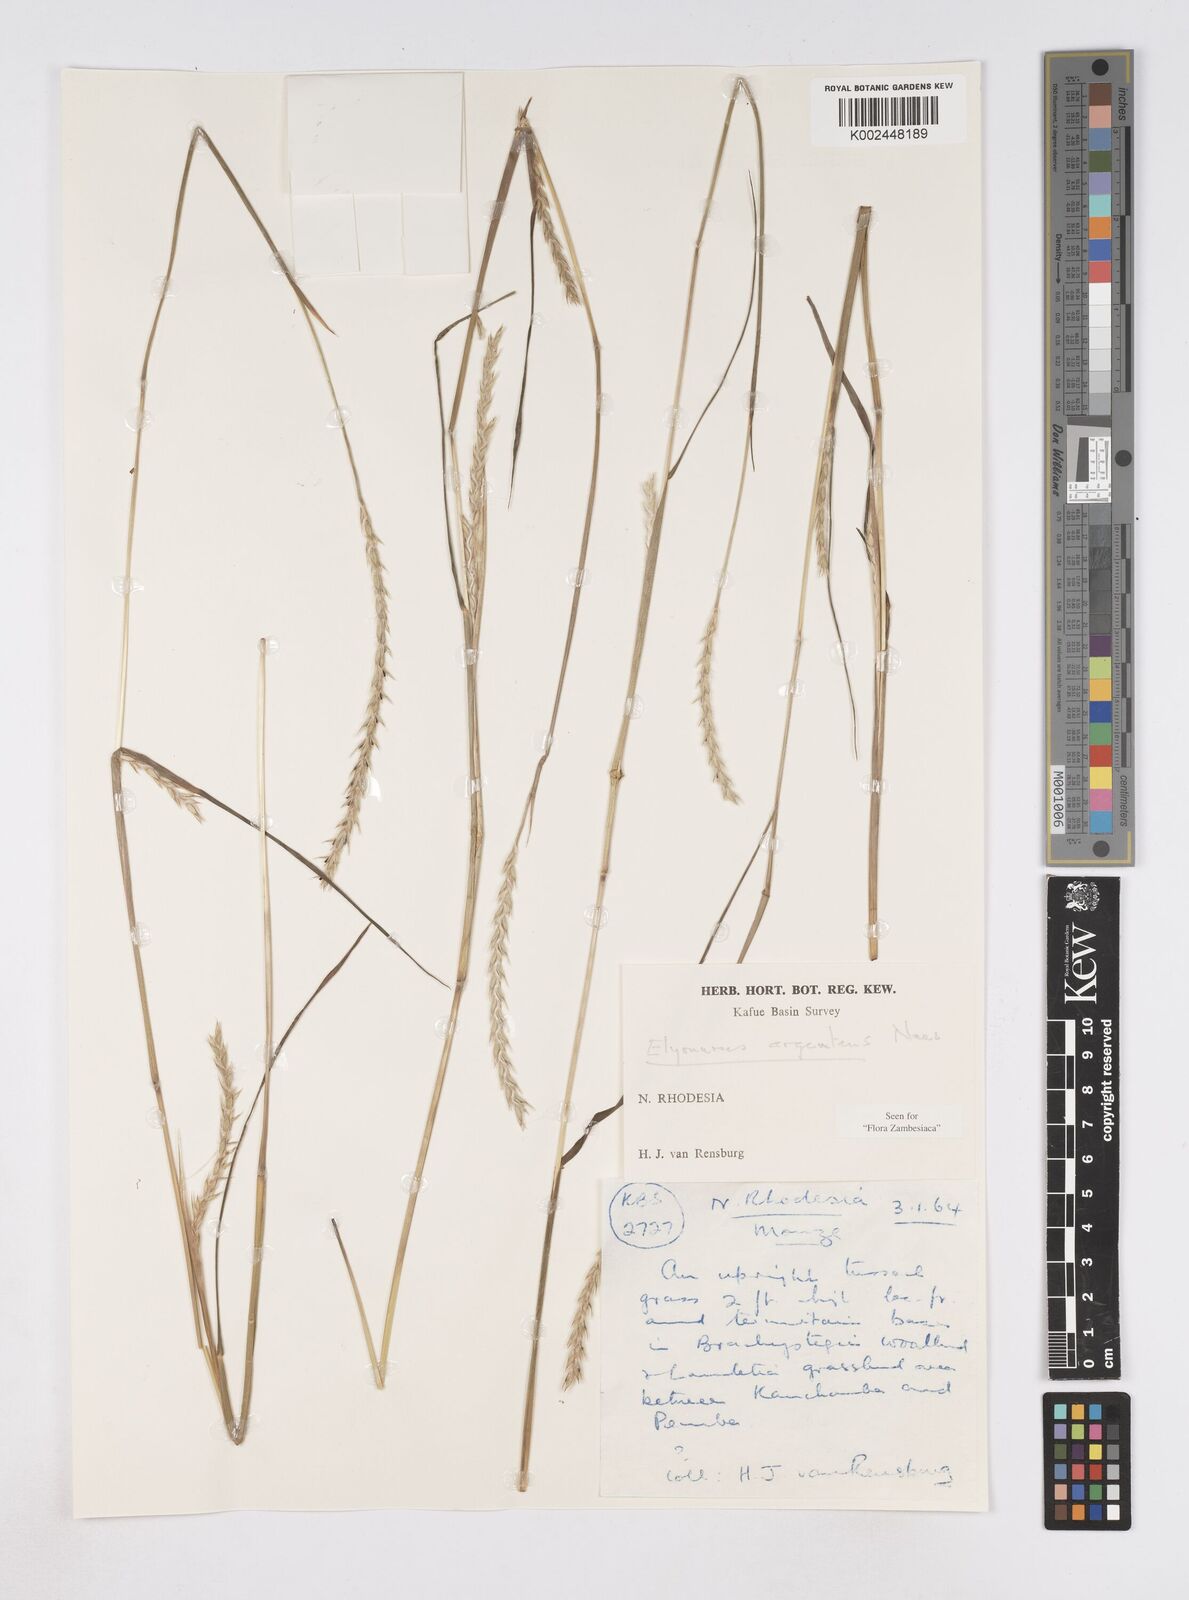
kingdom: Plantae
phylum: Tracheophyta
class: Liliopsida
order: Poales
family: Poaceae
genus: Elionurus
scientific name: Elionurus muticus
